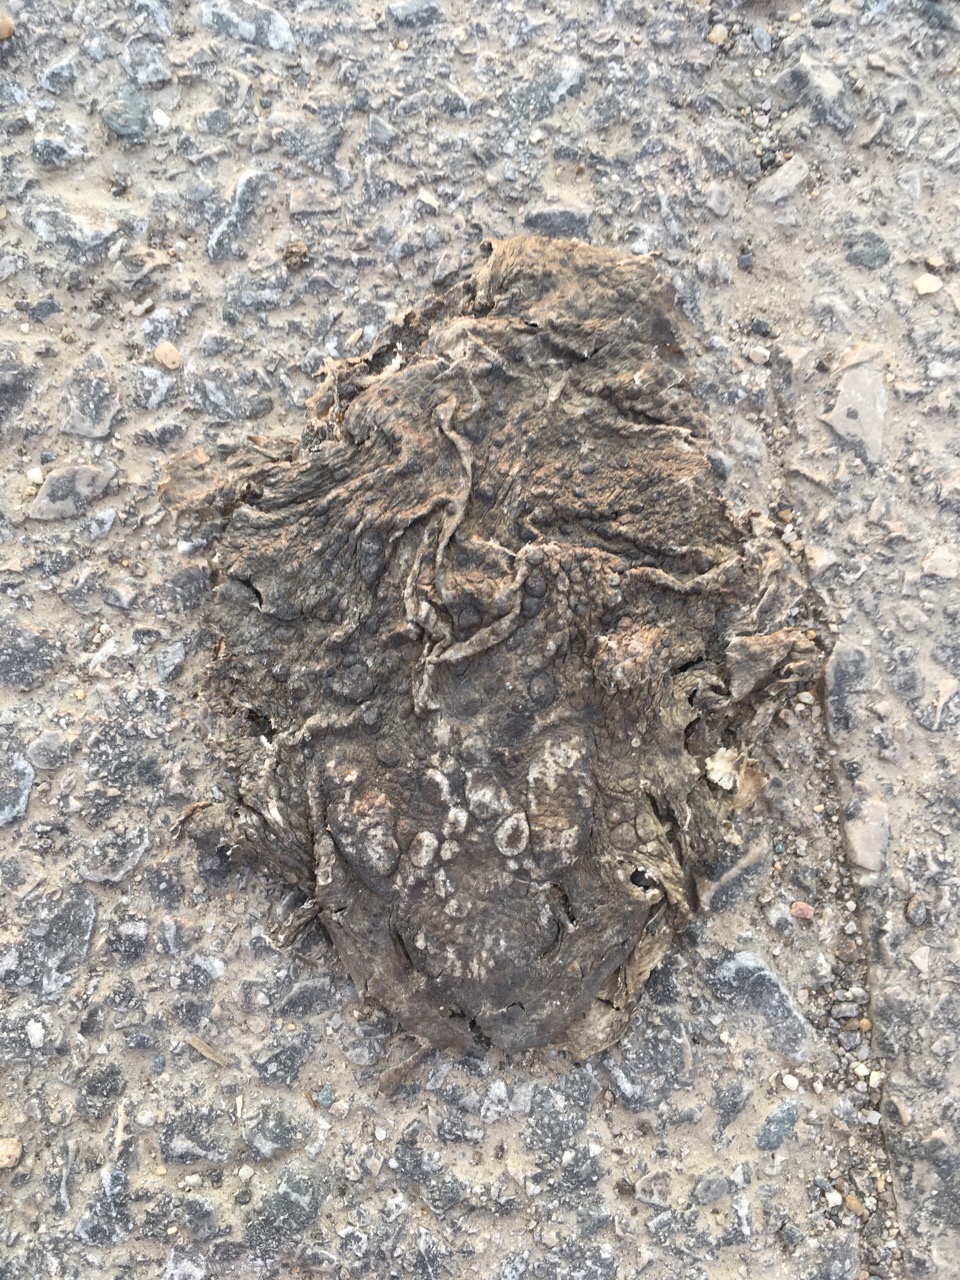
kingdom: Animalia
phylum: Chordata
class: Amphibia
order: Anura
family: Bufonidae
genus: Bufo
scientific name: Bufo bufo
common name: Common toad
